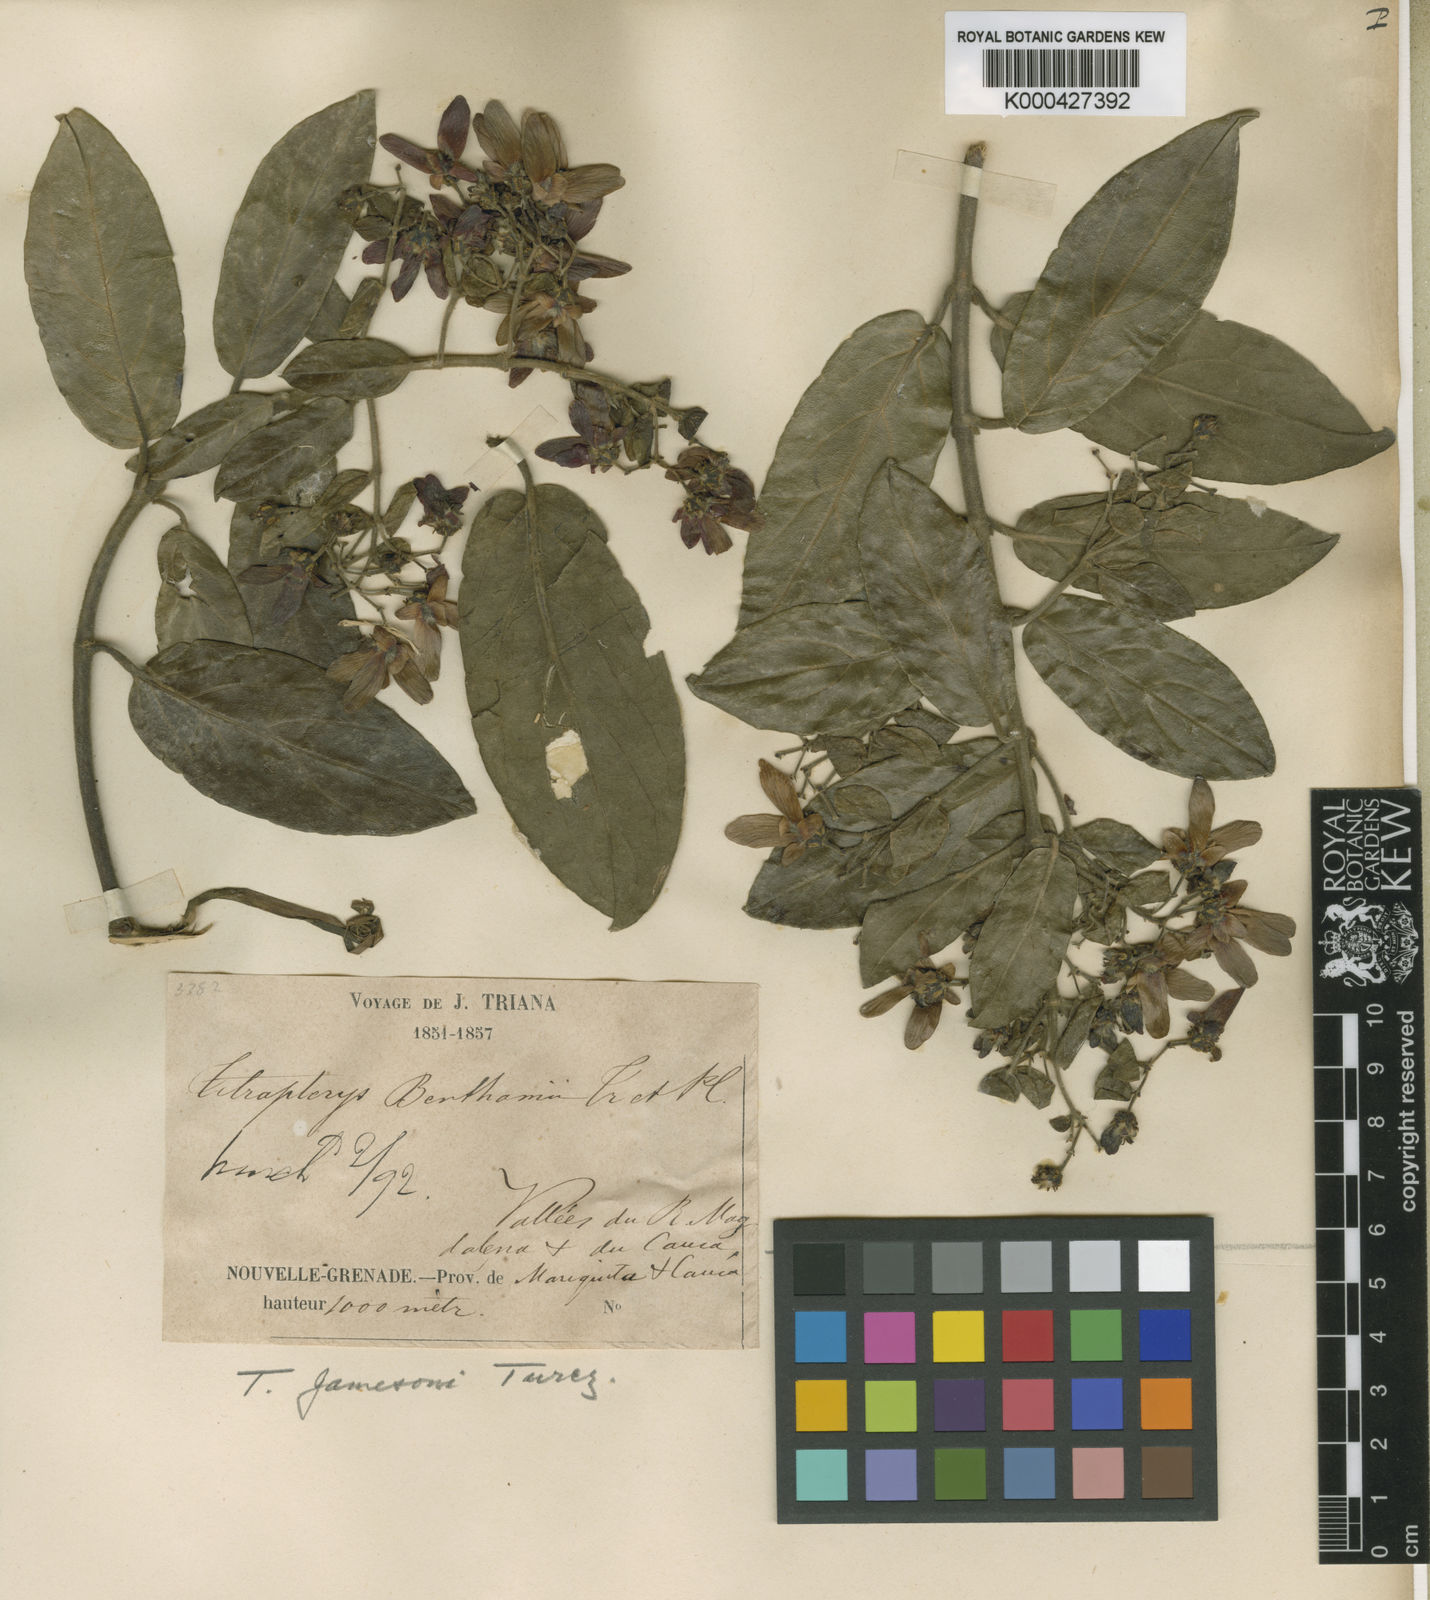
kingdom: Plantae
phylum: Tracheophyta
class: Magnoliopsida
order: Malpighiales
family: Malpighiaceae
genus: Tetrapterys
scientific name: Tetrapterys benthamii
